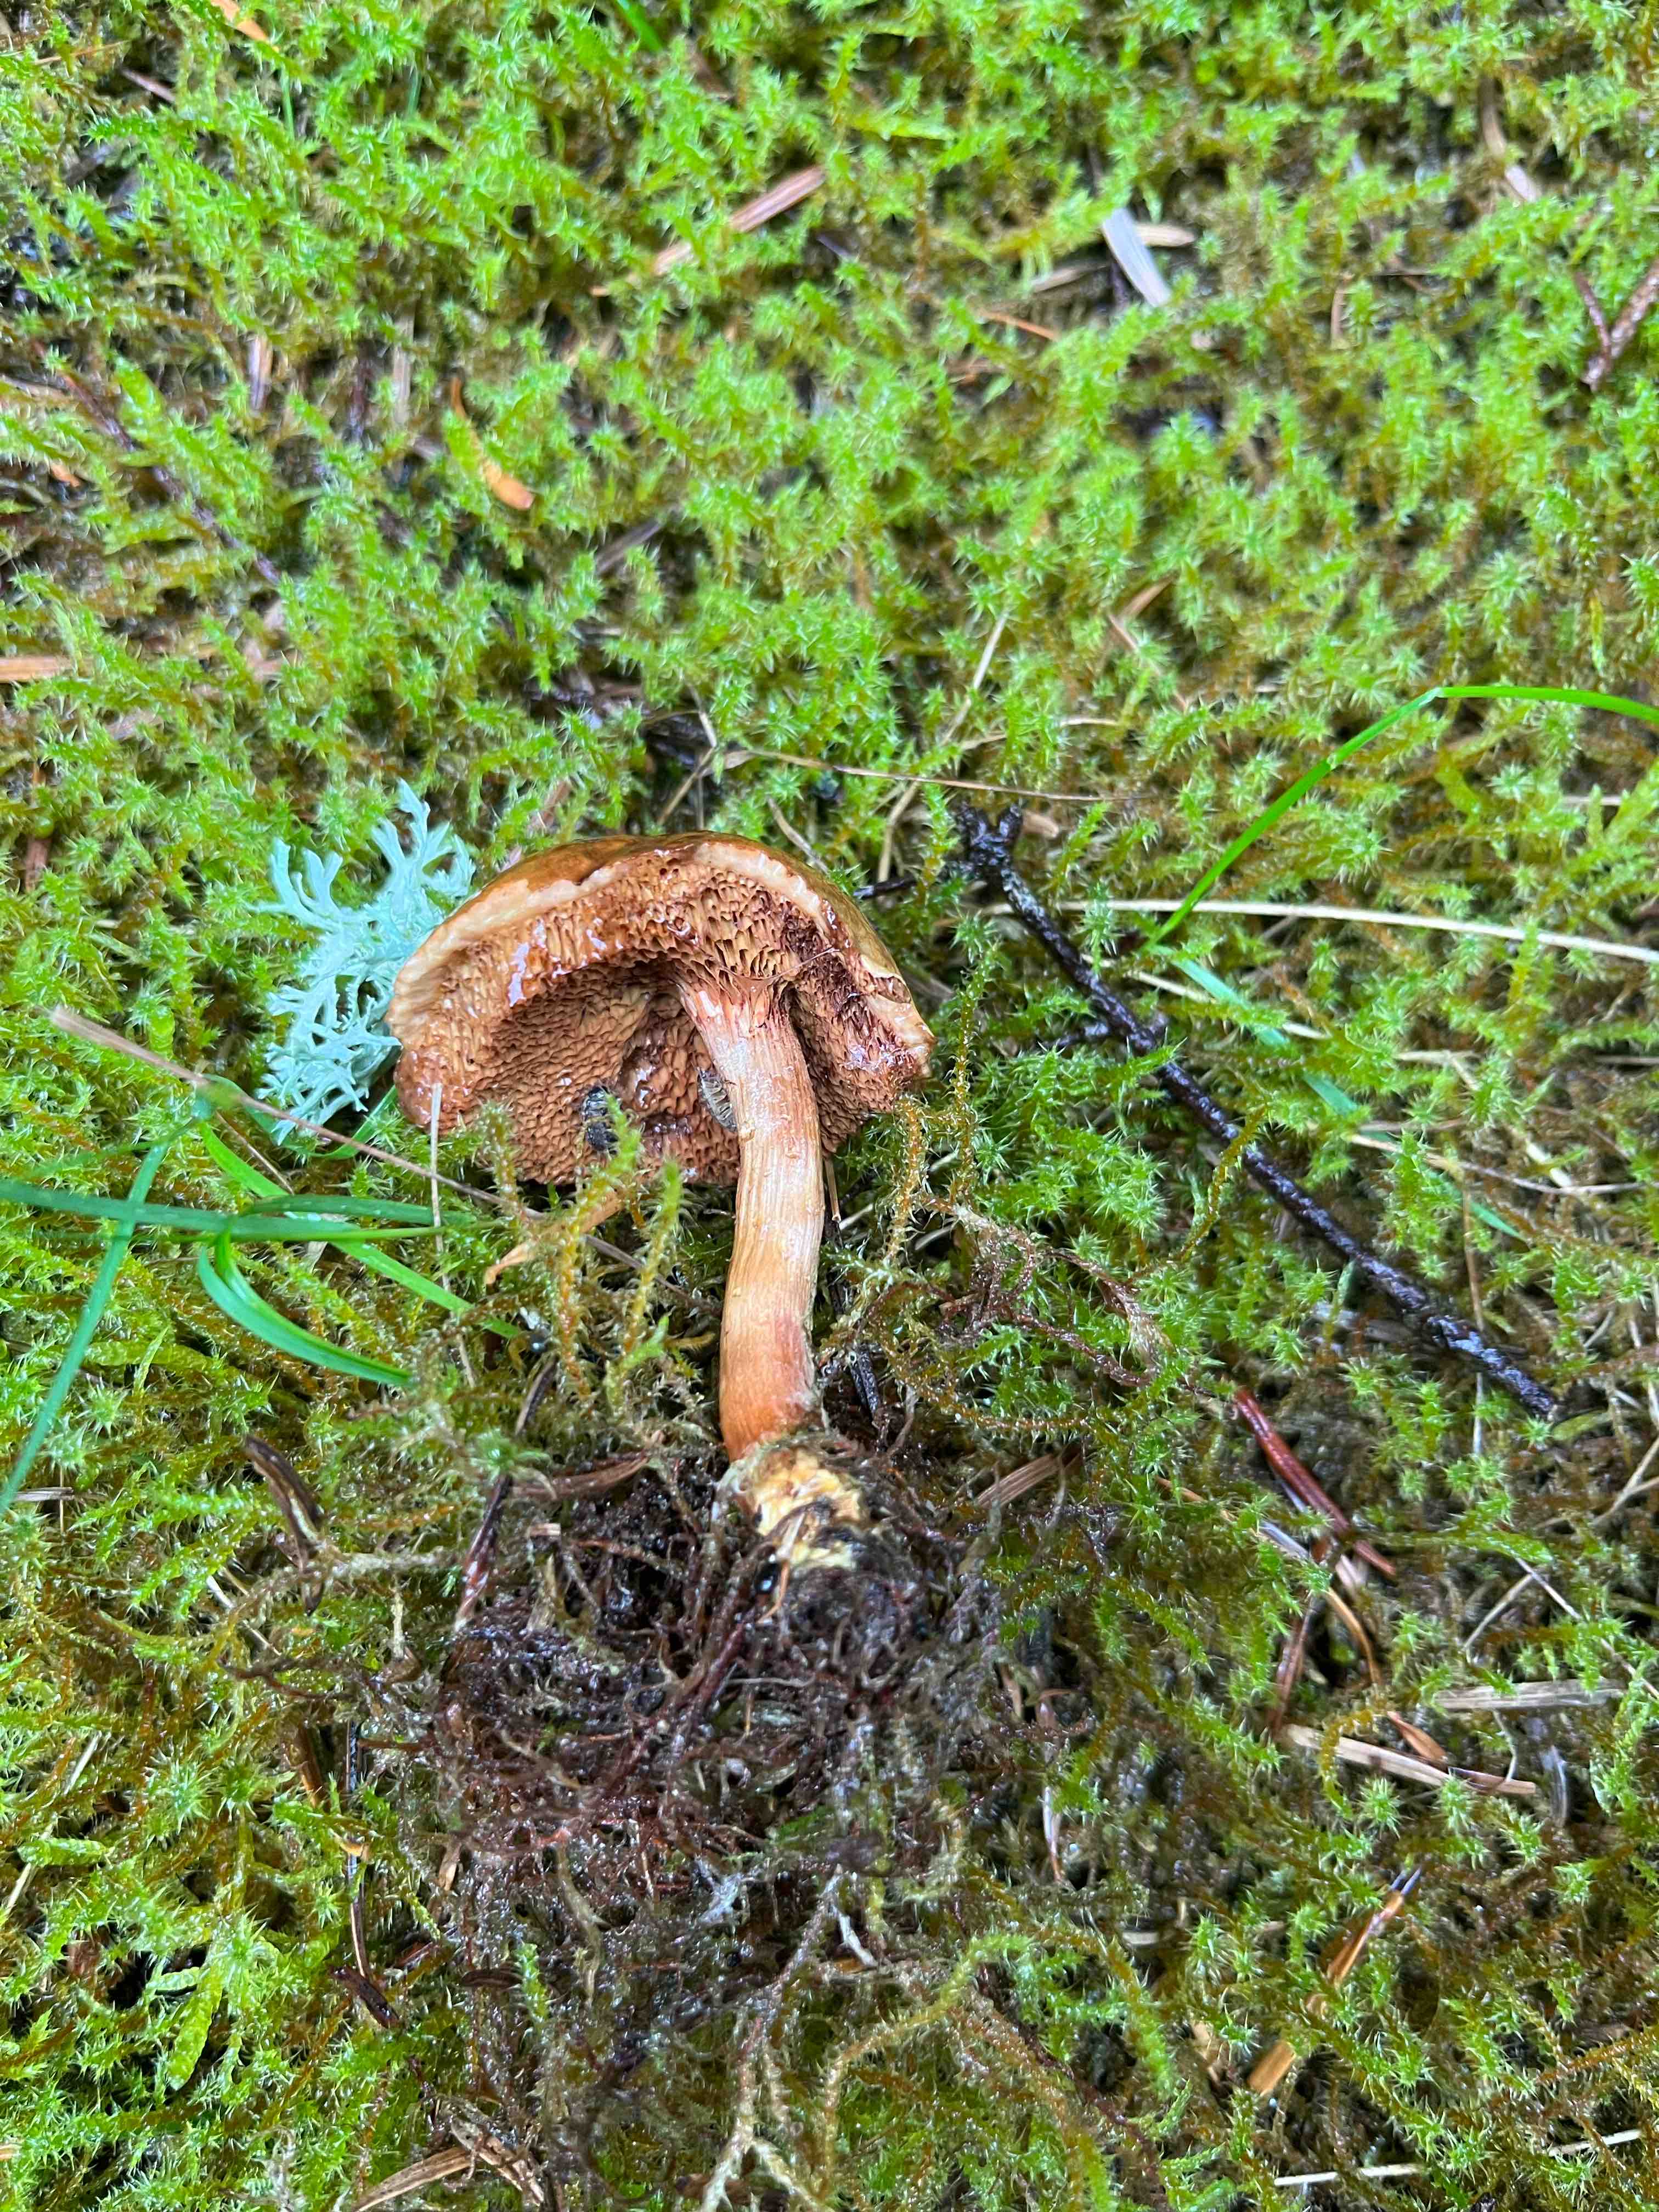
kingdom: Fungi
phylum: Basidiomycota
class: Agaricomycetes
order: Boletales
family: Boletaceae
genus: Chalciporus
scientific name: Chalciporus piperatus
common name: peberrørhat
